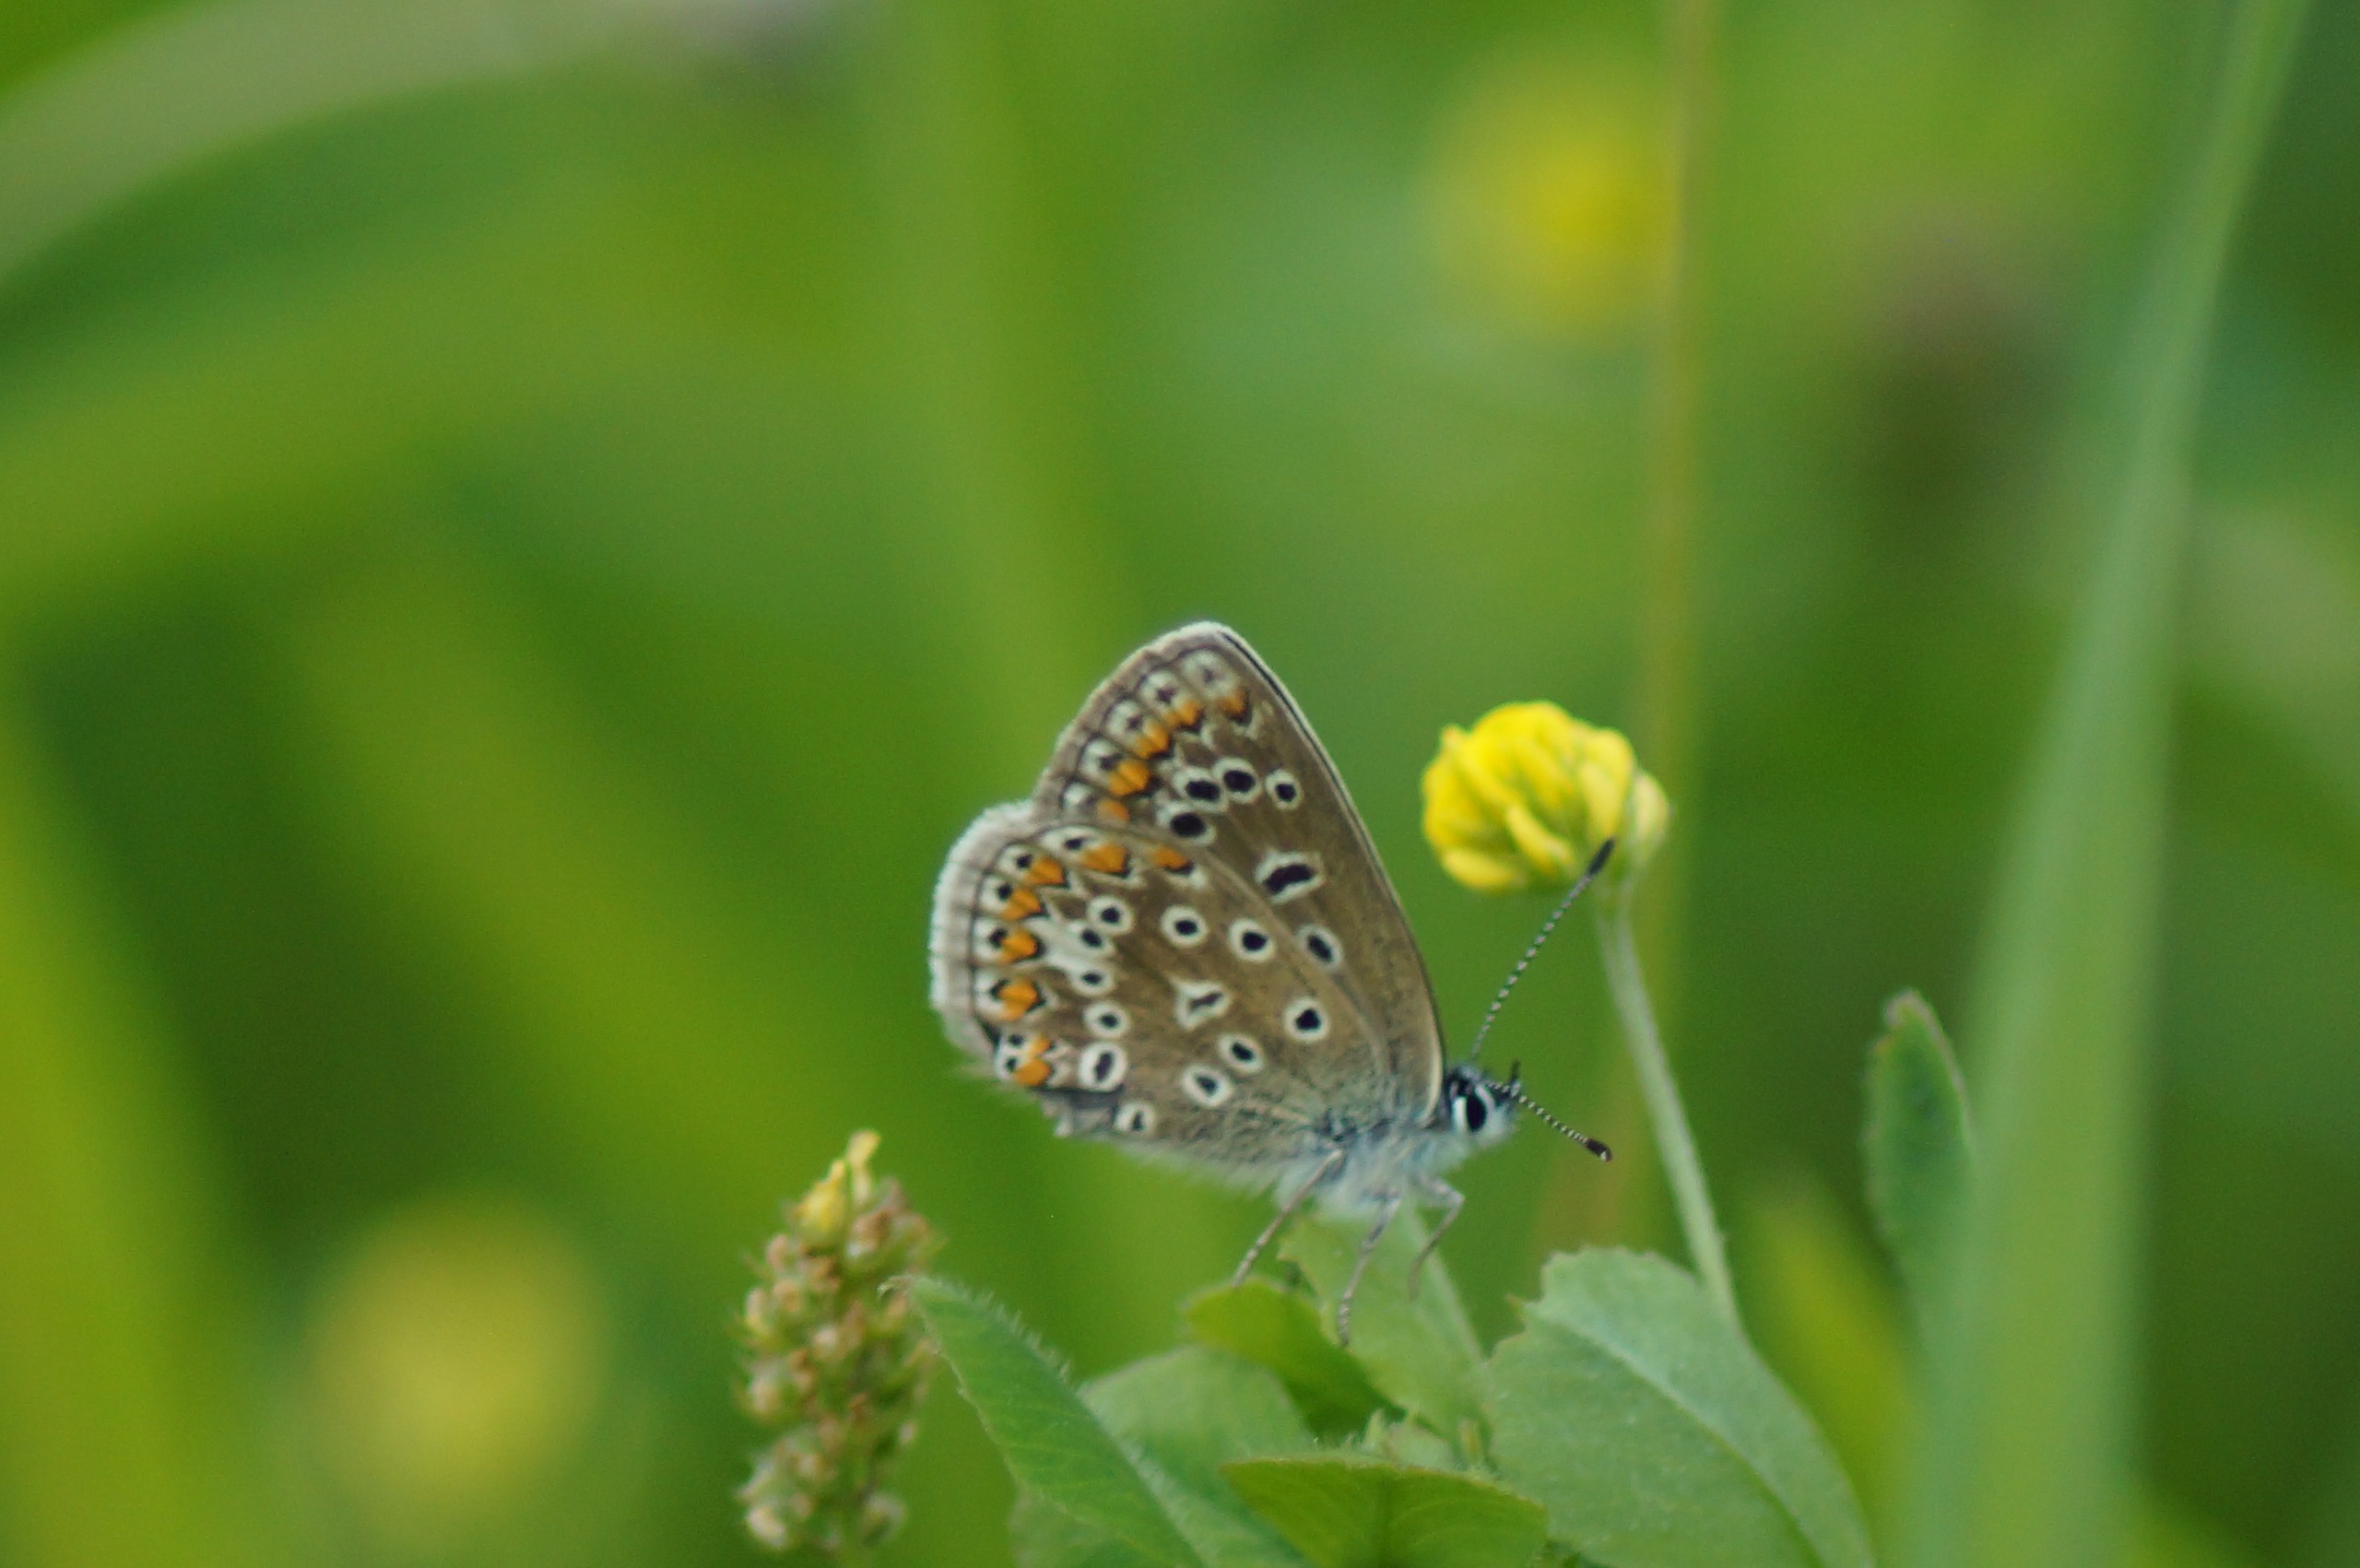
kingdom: Animalia
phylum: Arthropoda
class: Insecta
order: Lepidoptera
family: Lycaenidae
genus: Polyommatus
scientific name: Polyommatus icarus
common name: Almindelig blåfugl
